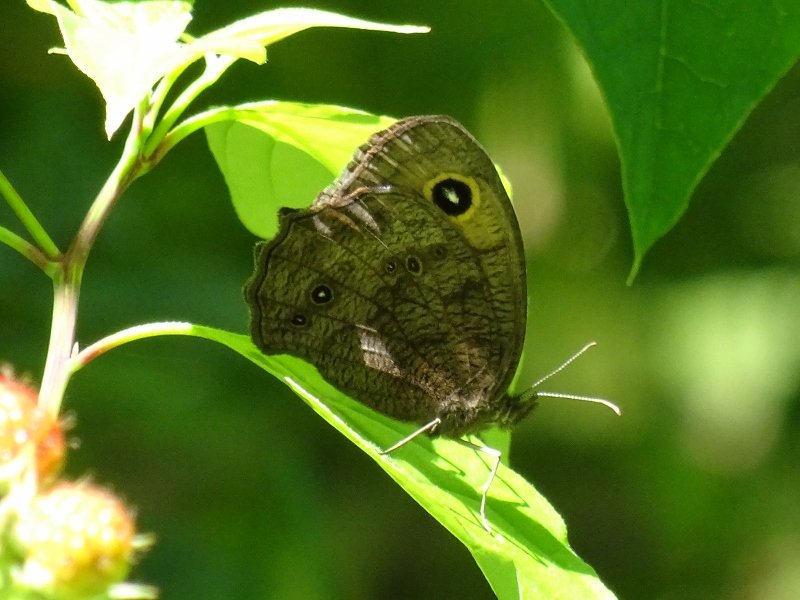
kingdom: Animalia
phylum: Arthropoda
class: Insecta
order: Lepidoptera
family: Nymphalidae
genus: Cercyonis
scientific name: Cercyonis pegala
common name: Common Wood-Nymph
